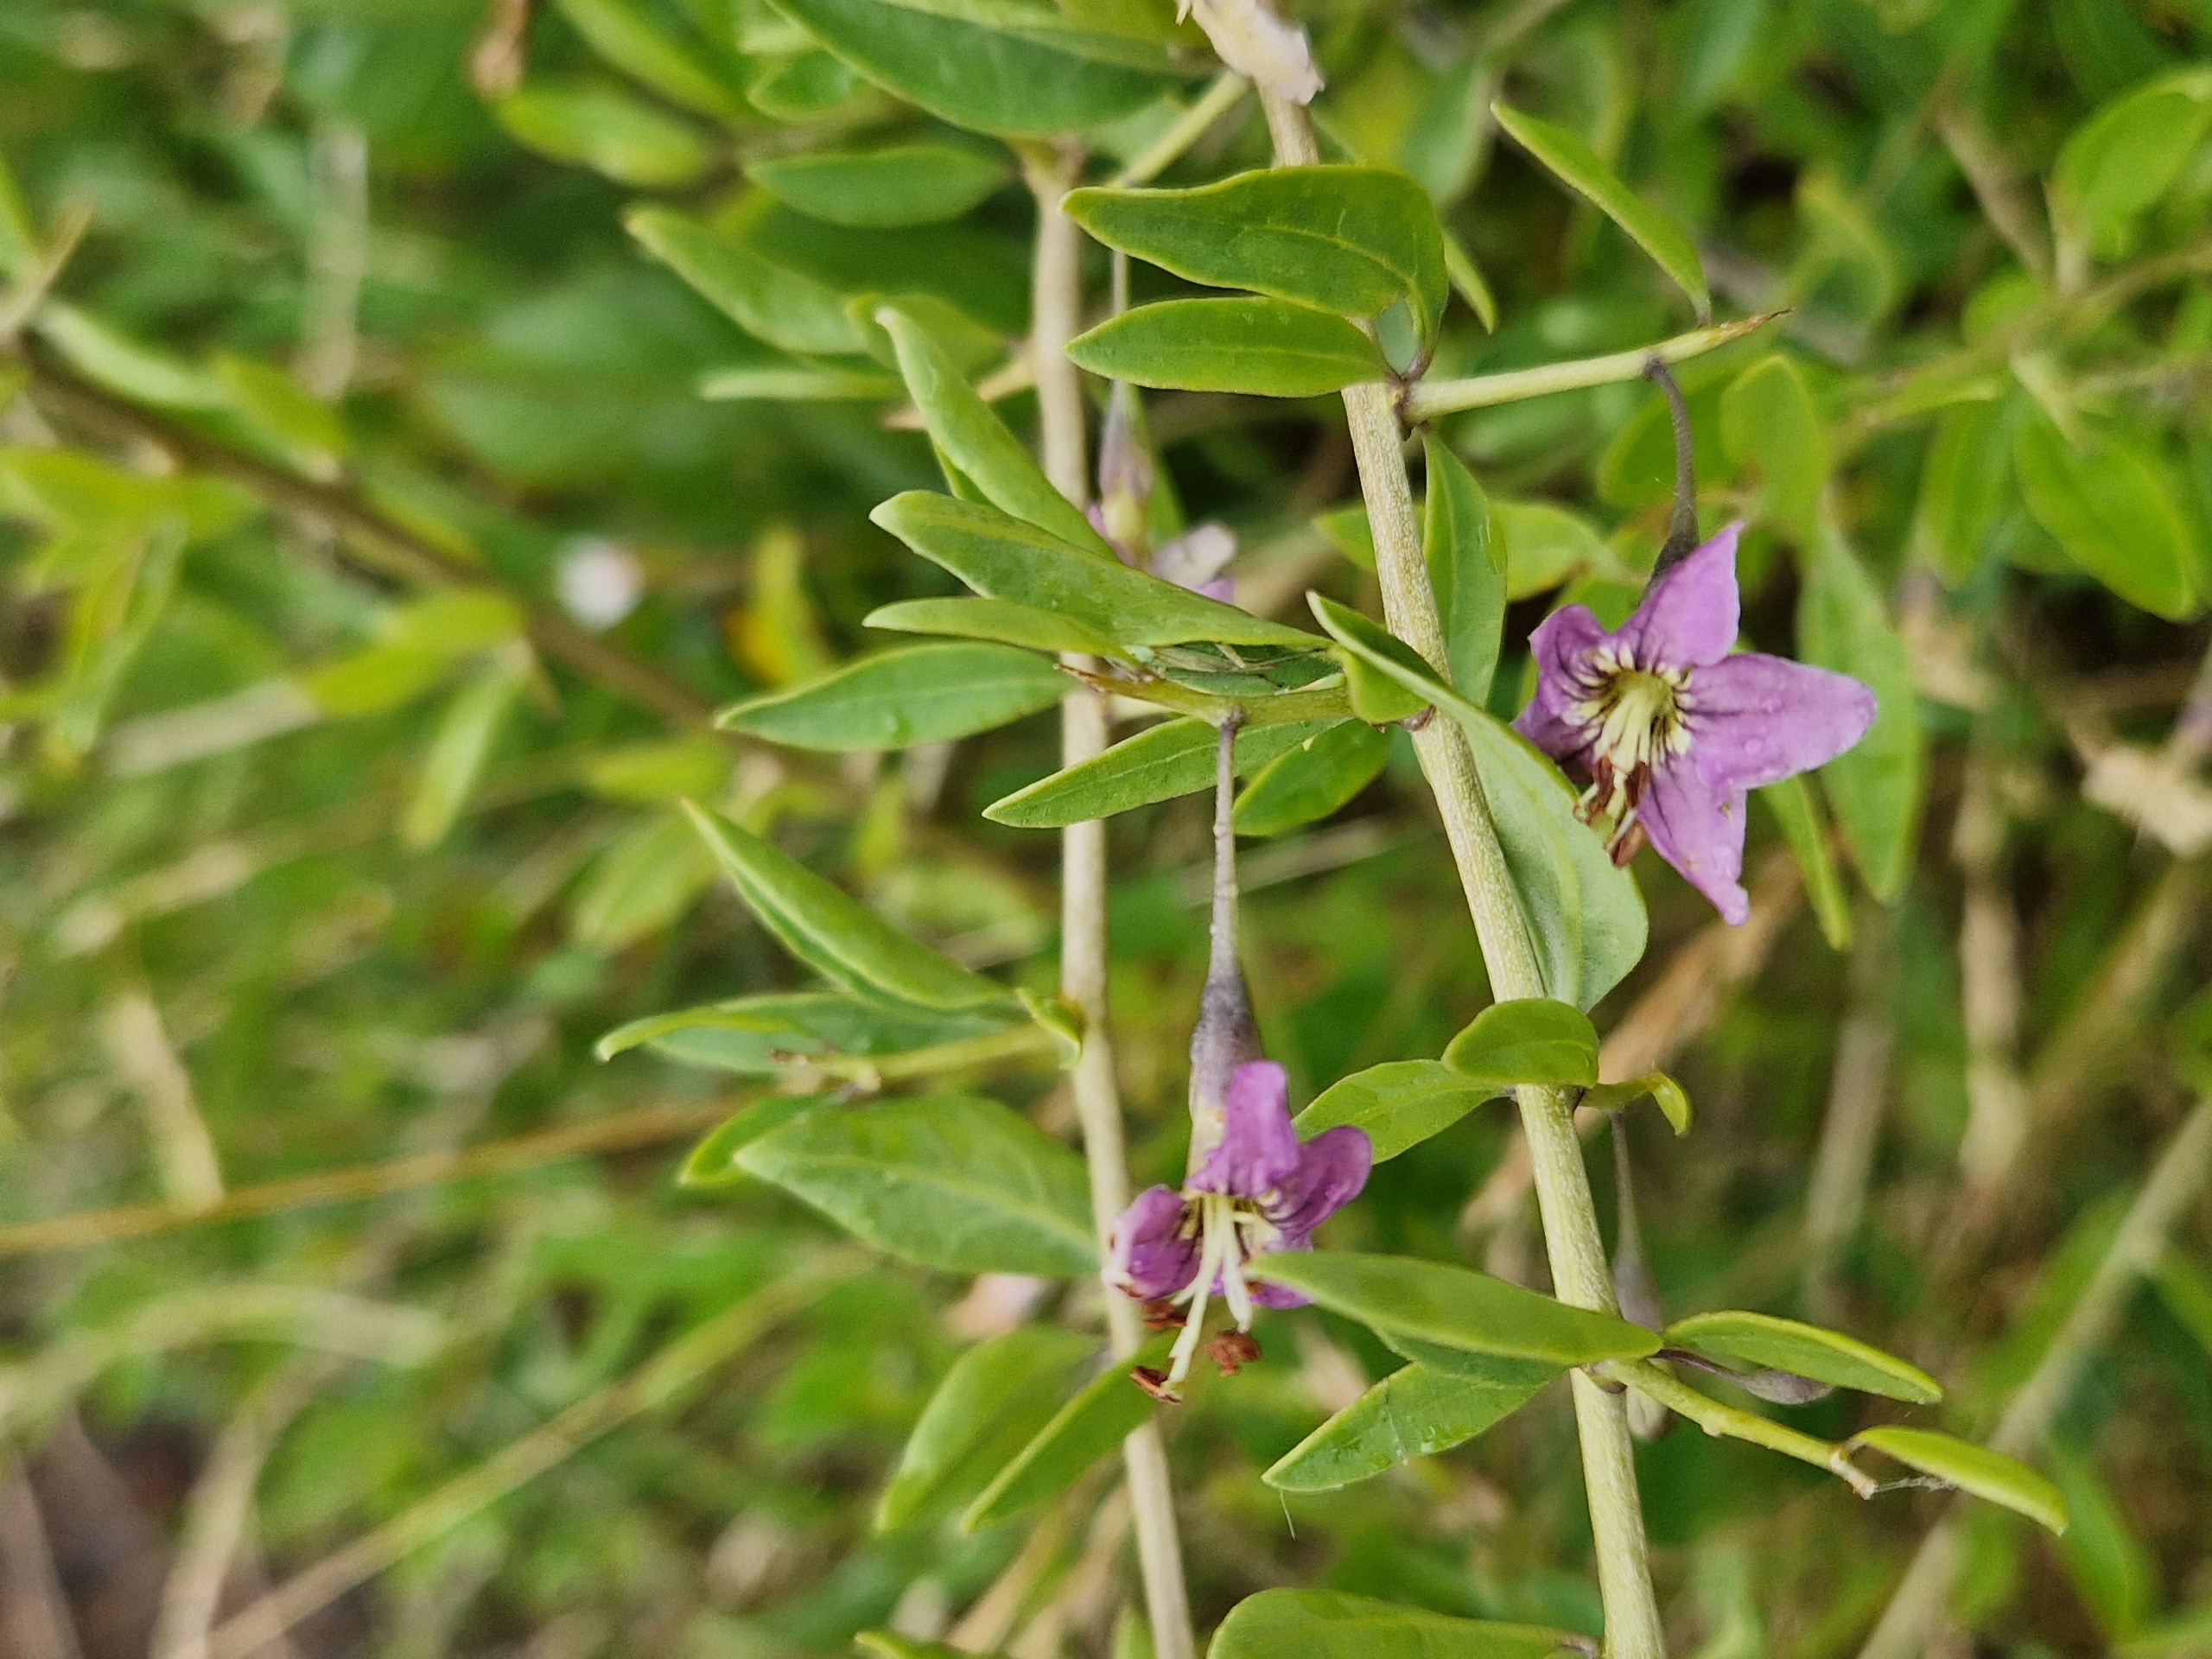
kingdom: Plantae
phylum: Tracheophyta
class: Magnoliopsida
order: Solanales
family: Solanaceae
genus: Lycium
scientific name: Lycium barbarum
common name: Bukketorn
